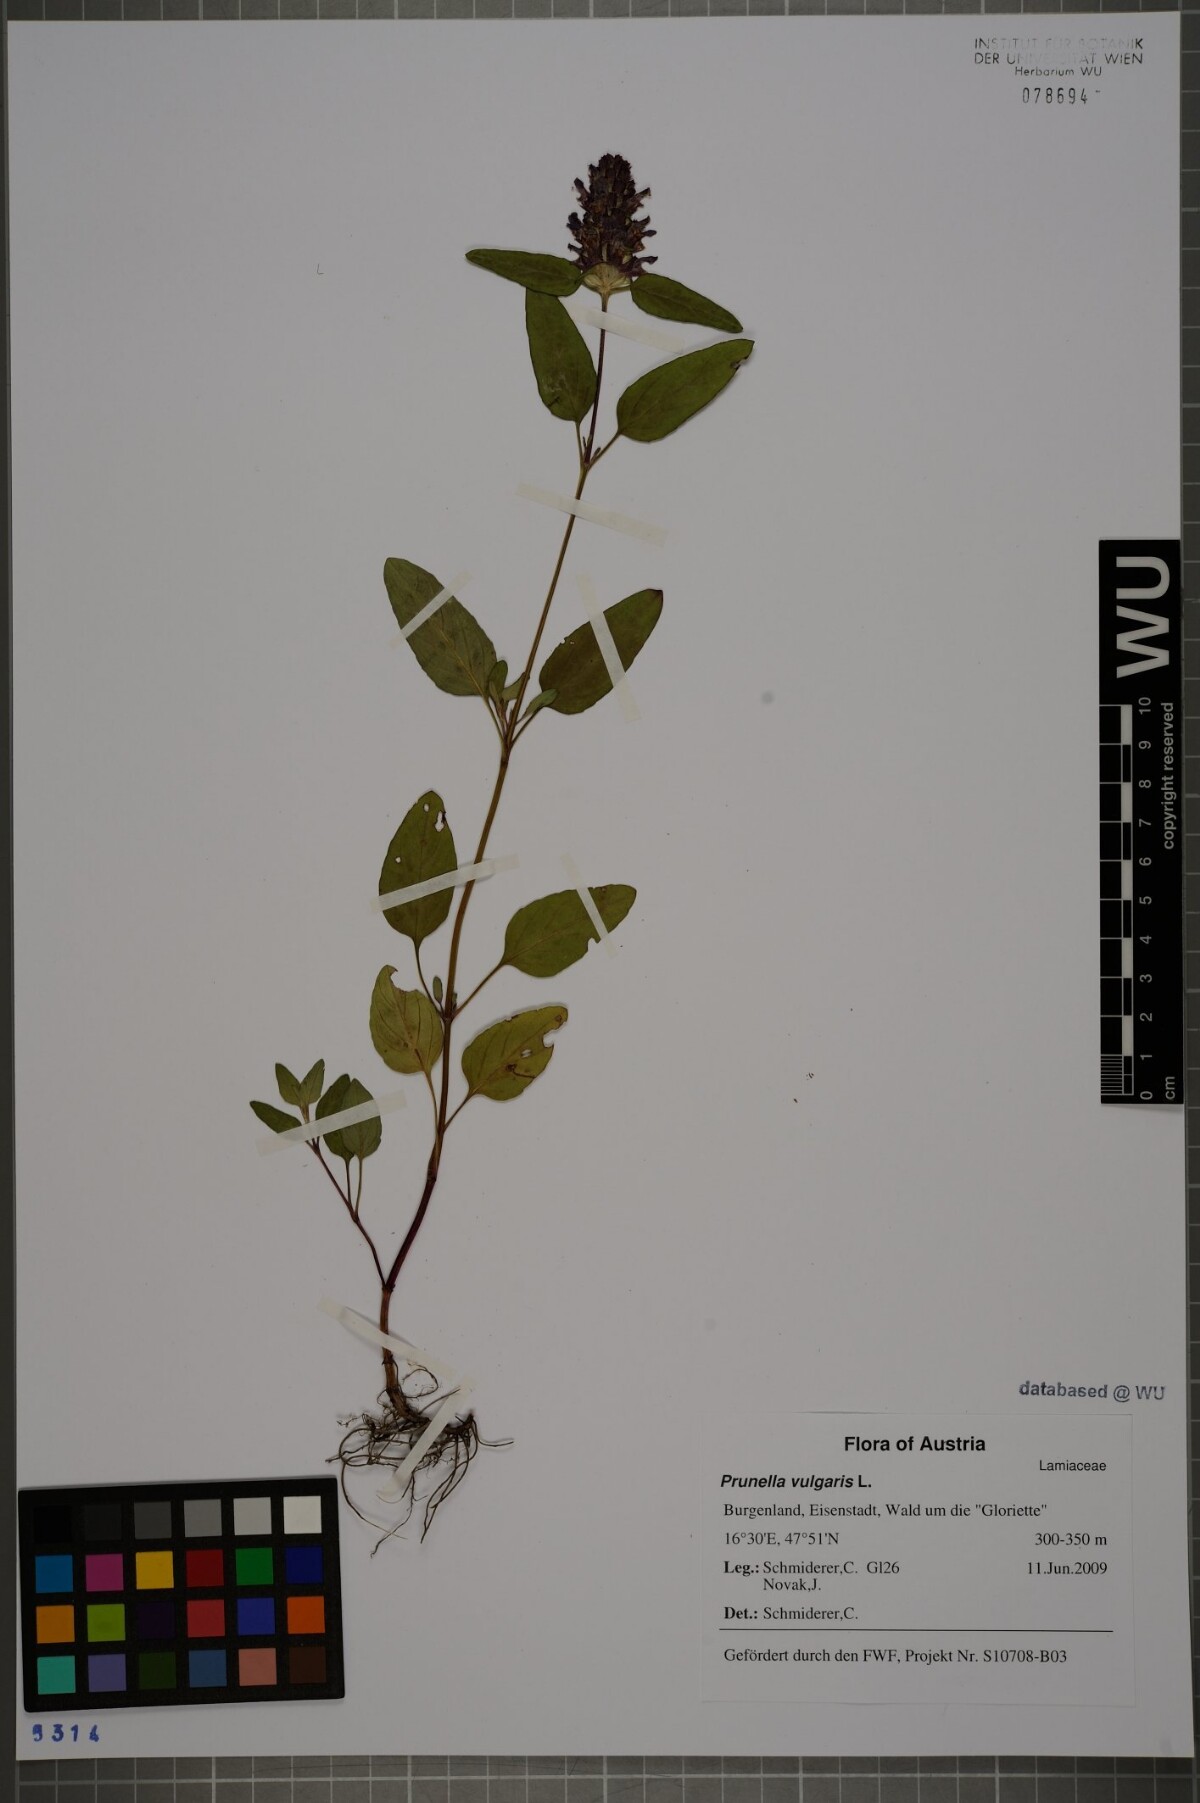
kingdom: Plantae
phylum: Tracheophyta
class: Magnoliopsida
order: Lamiales
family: Lamiaceae
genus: Prunella
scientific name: Prunella vulgaris
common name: Heal-all
